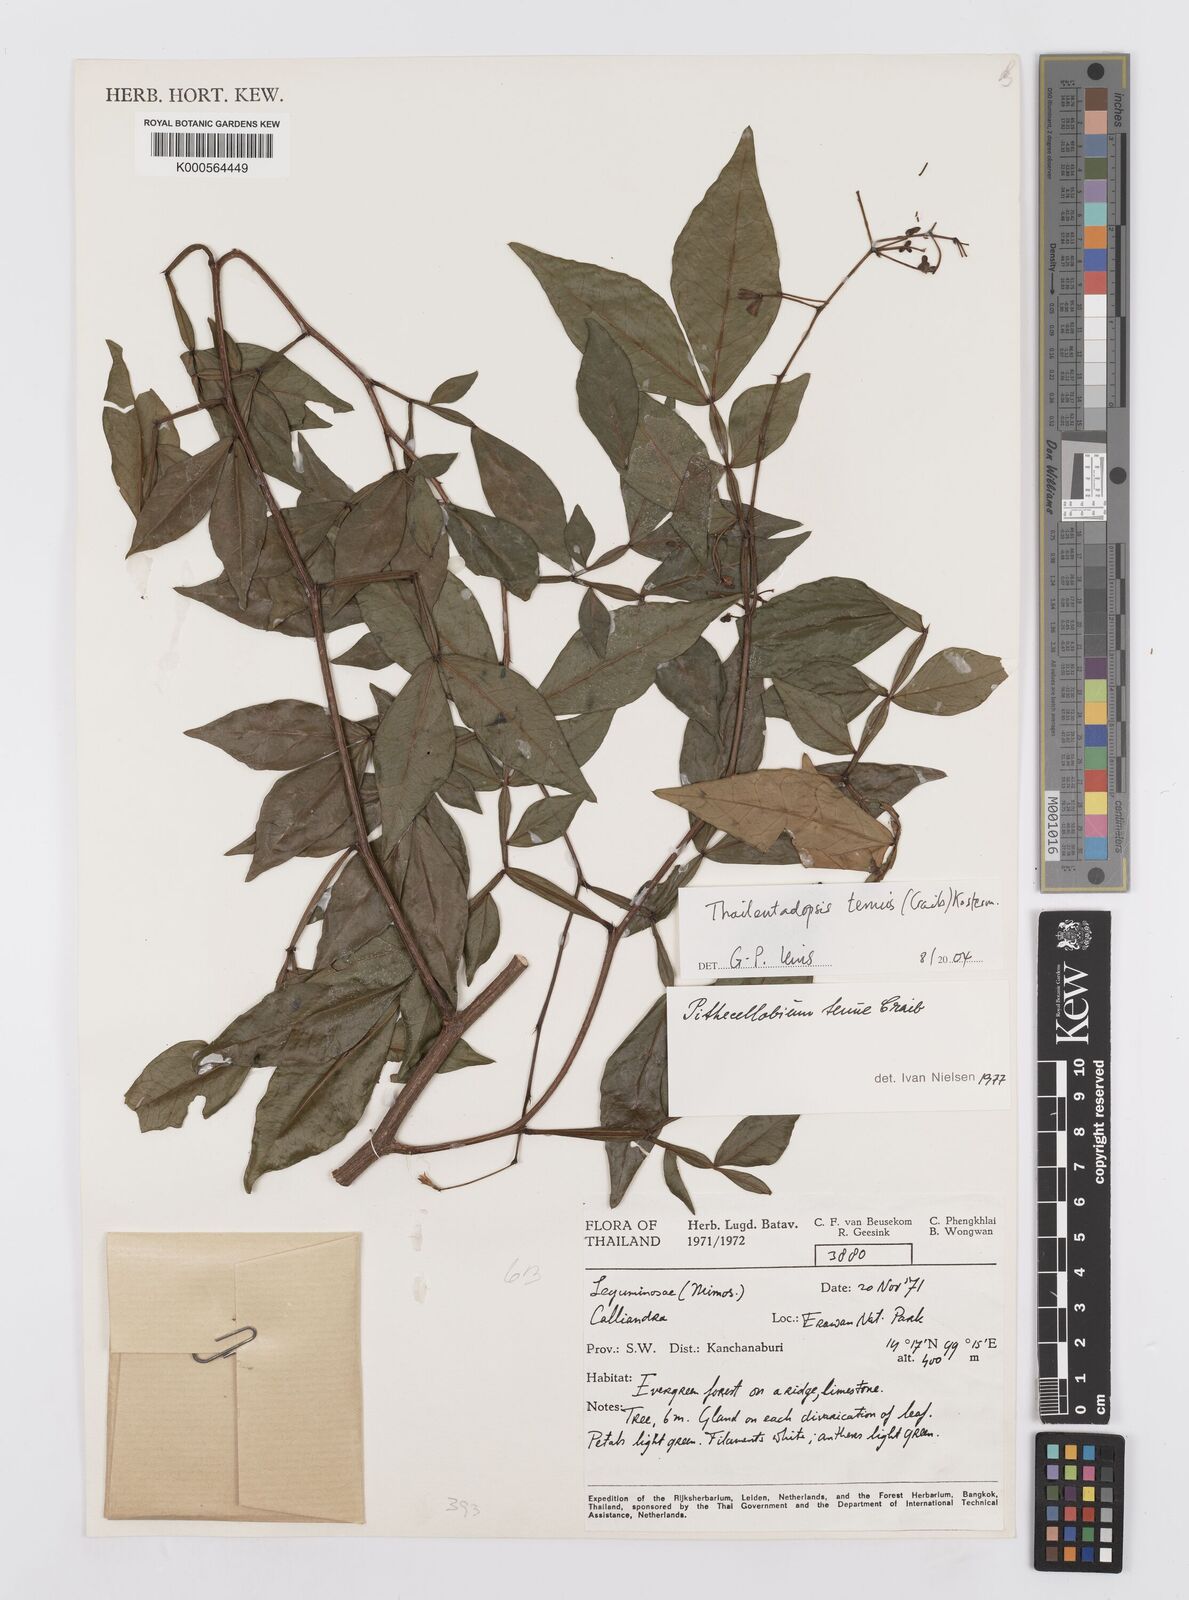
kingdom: Plantae
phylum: Tracheophyta
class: Magnoliopsida
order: Fabales
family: Fabaceae
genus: Thailentadopsis
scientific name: Thailentadopsis tenuis
